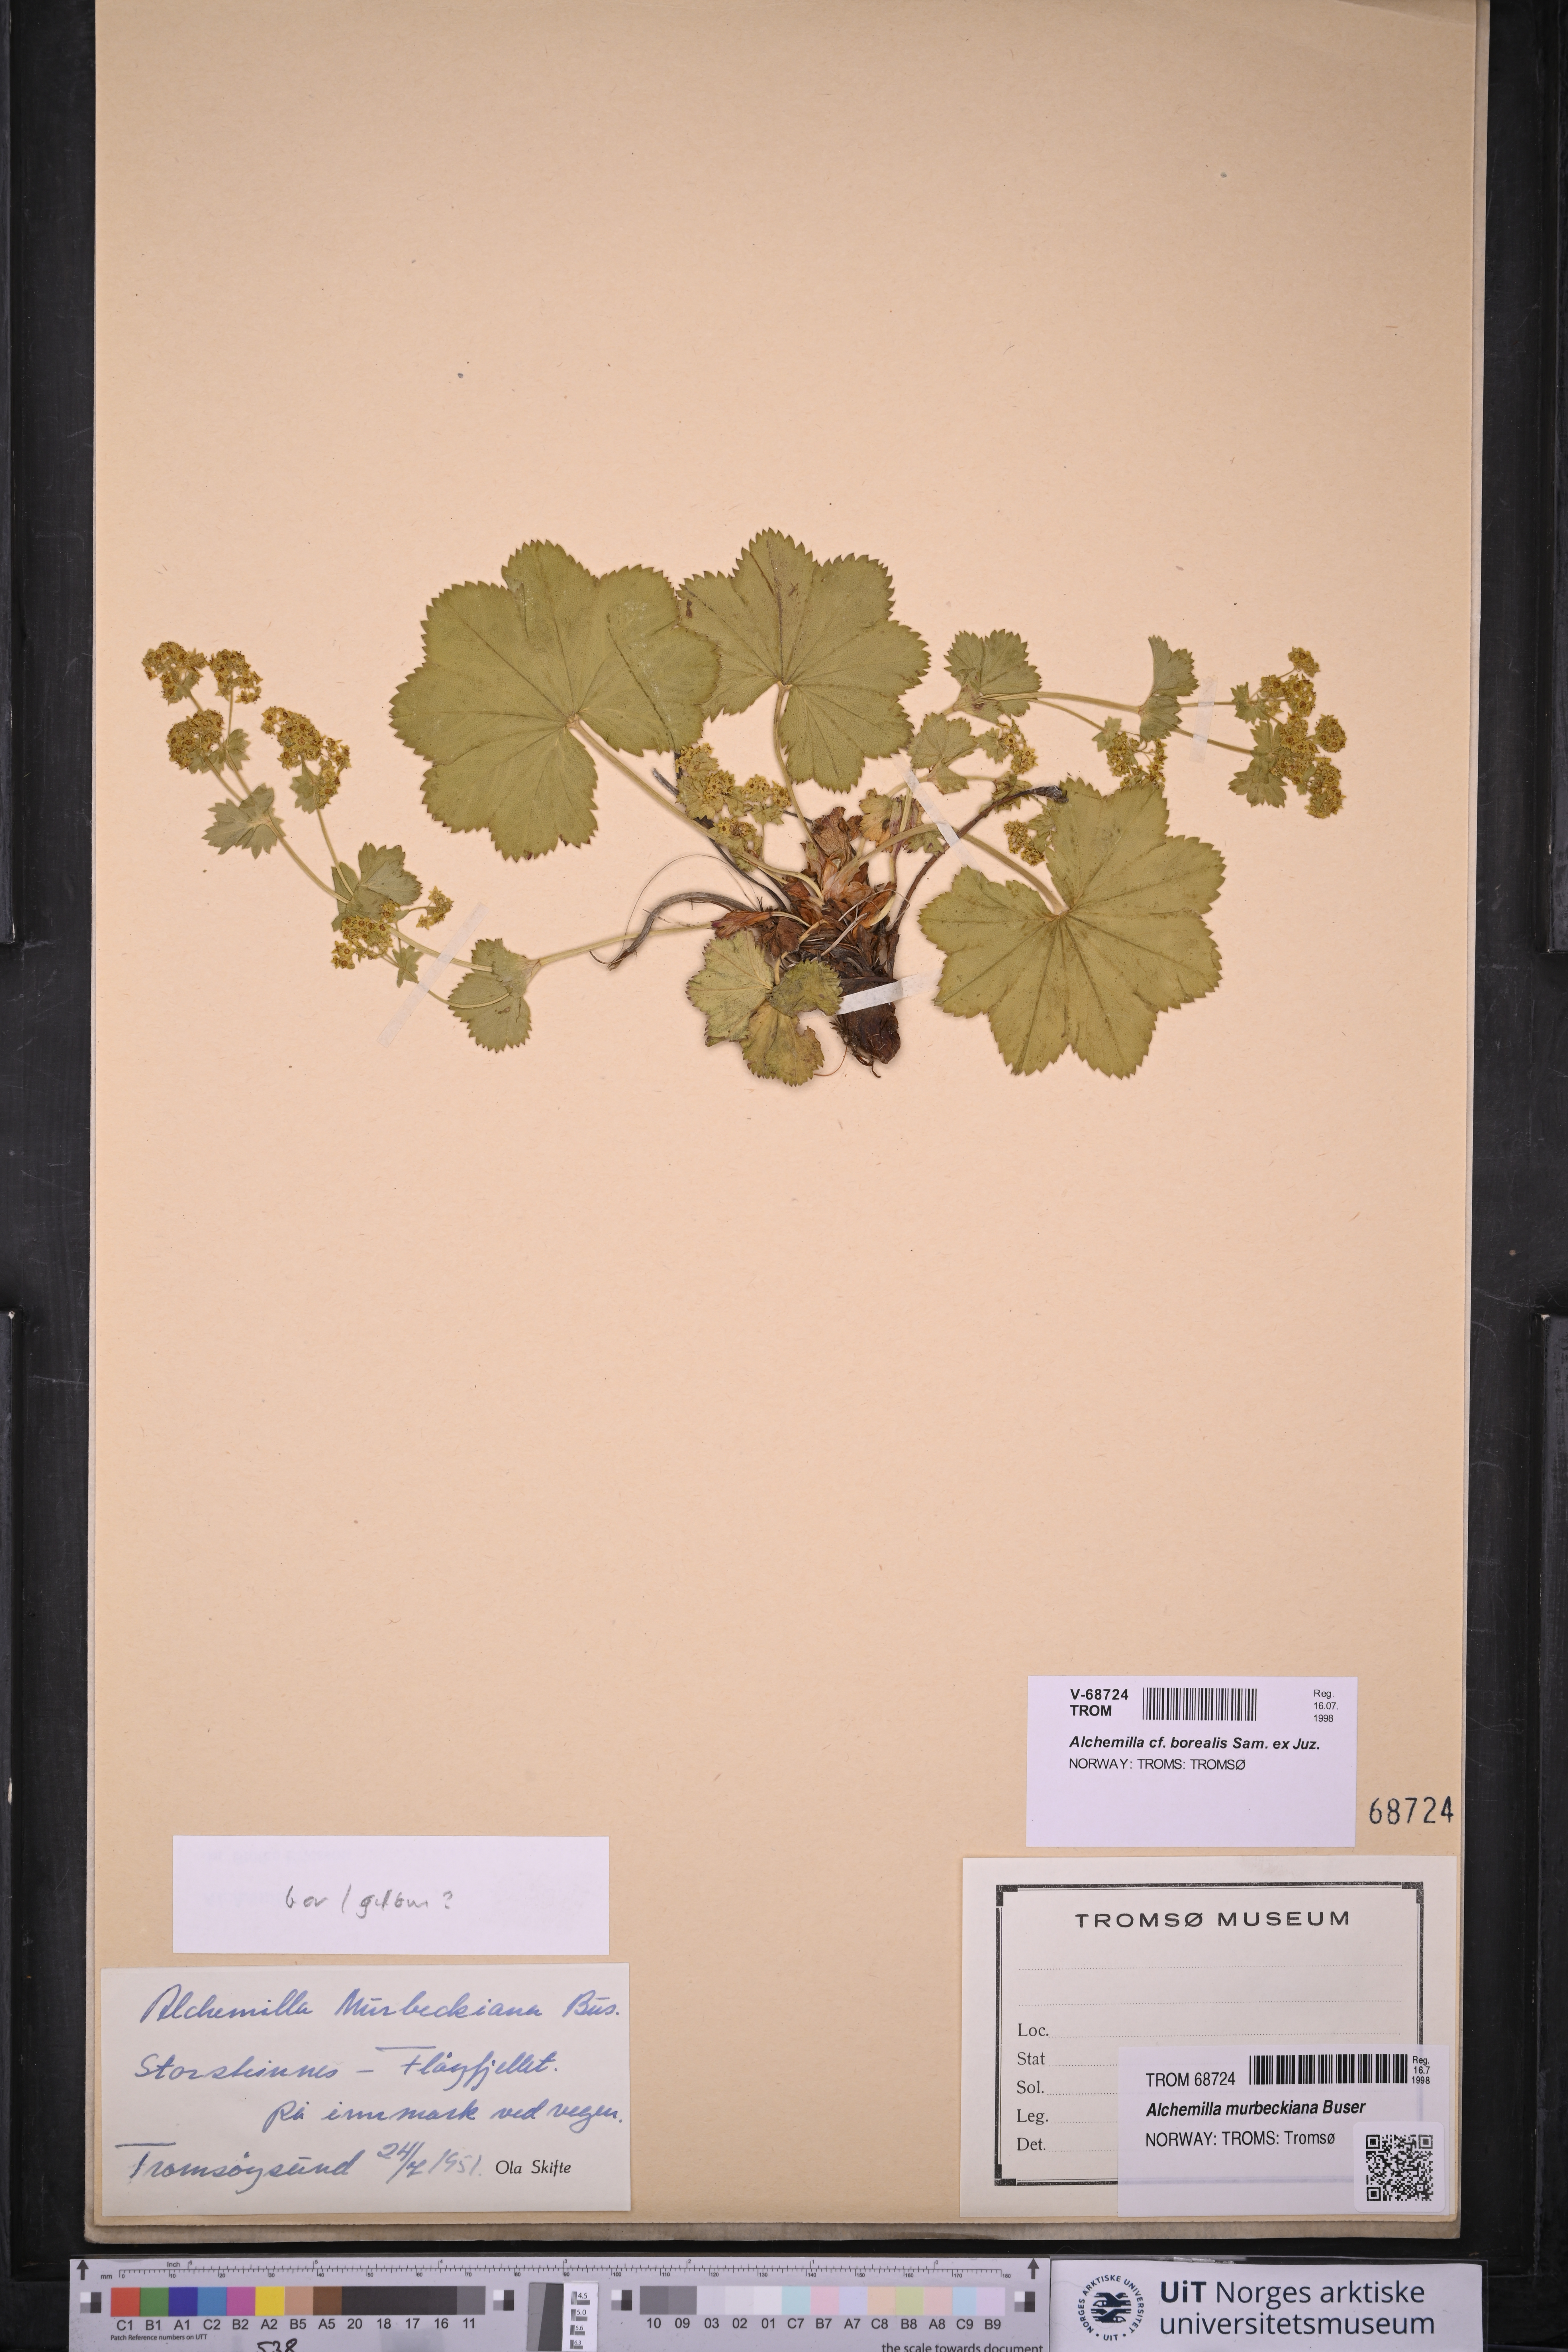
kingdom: Plantae
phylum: Tracheophyta
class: Magnoliopsida
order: Rosales
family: Rosaceae
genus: Alchemilla
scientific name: Alchemilla borealis
